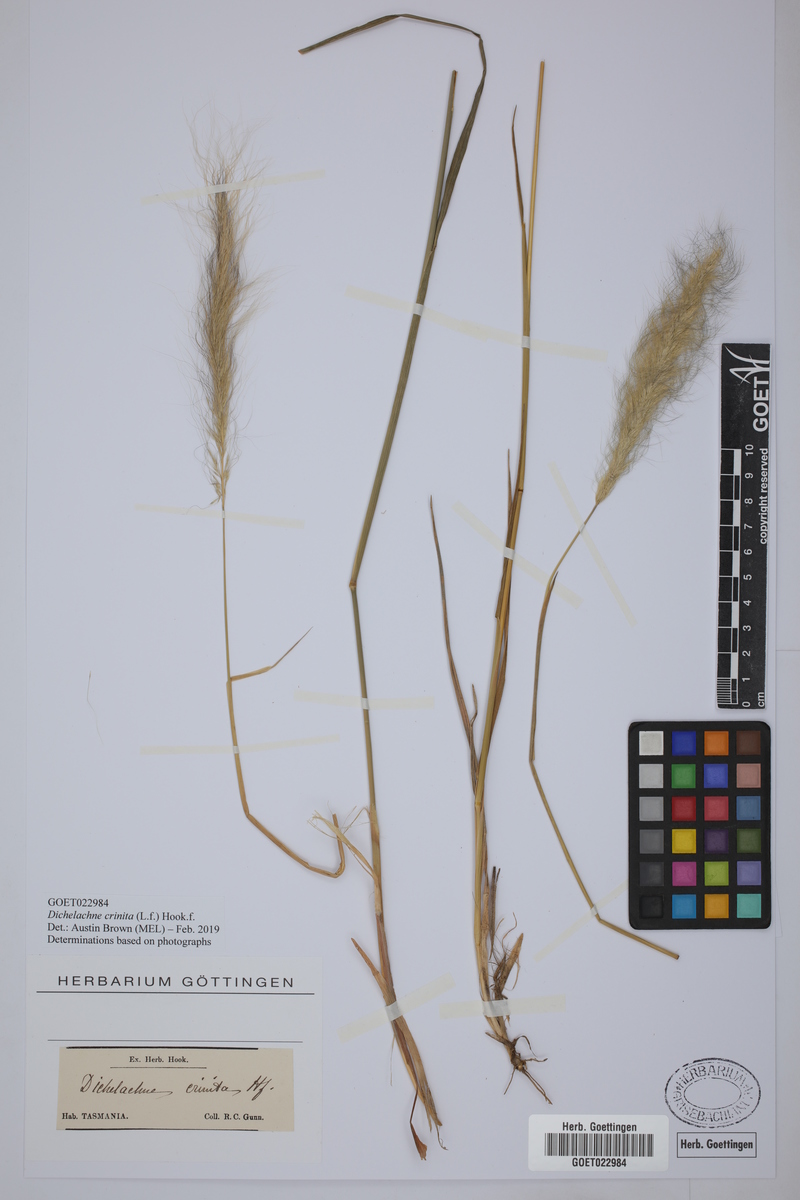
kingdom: Plantae
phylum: Tracheophyta
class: Liliopsida
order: Poales
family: Poaceae
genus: Dichelachne
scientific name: Dichelachne crinita
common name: Clovenfoot plumegrass
